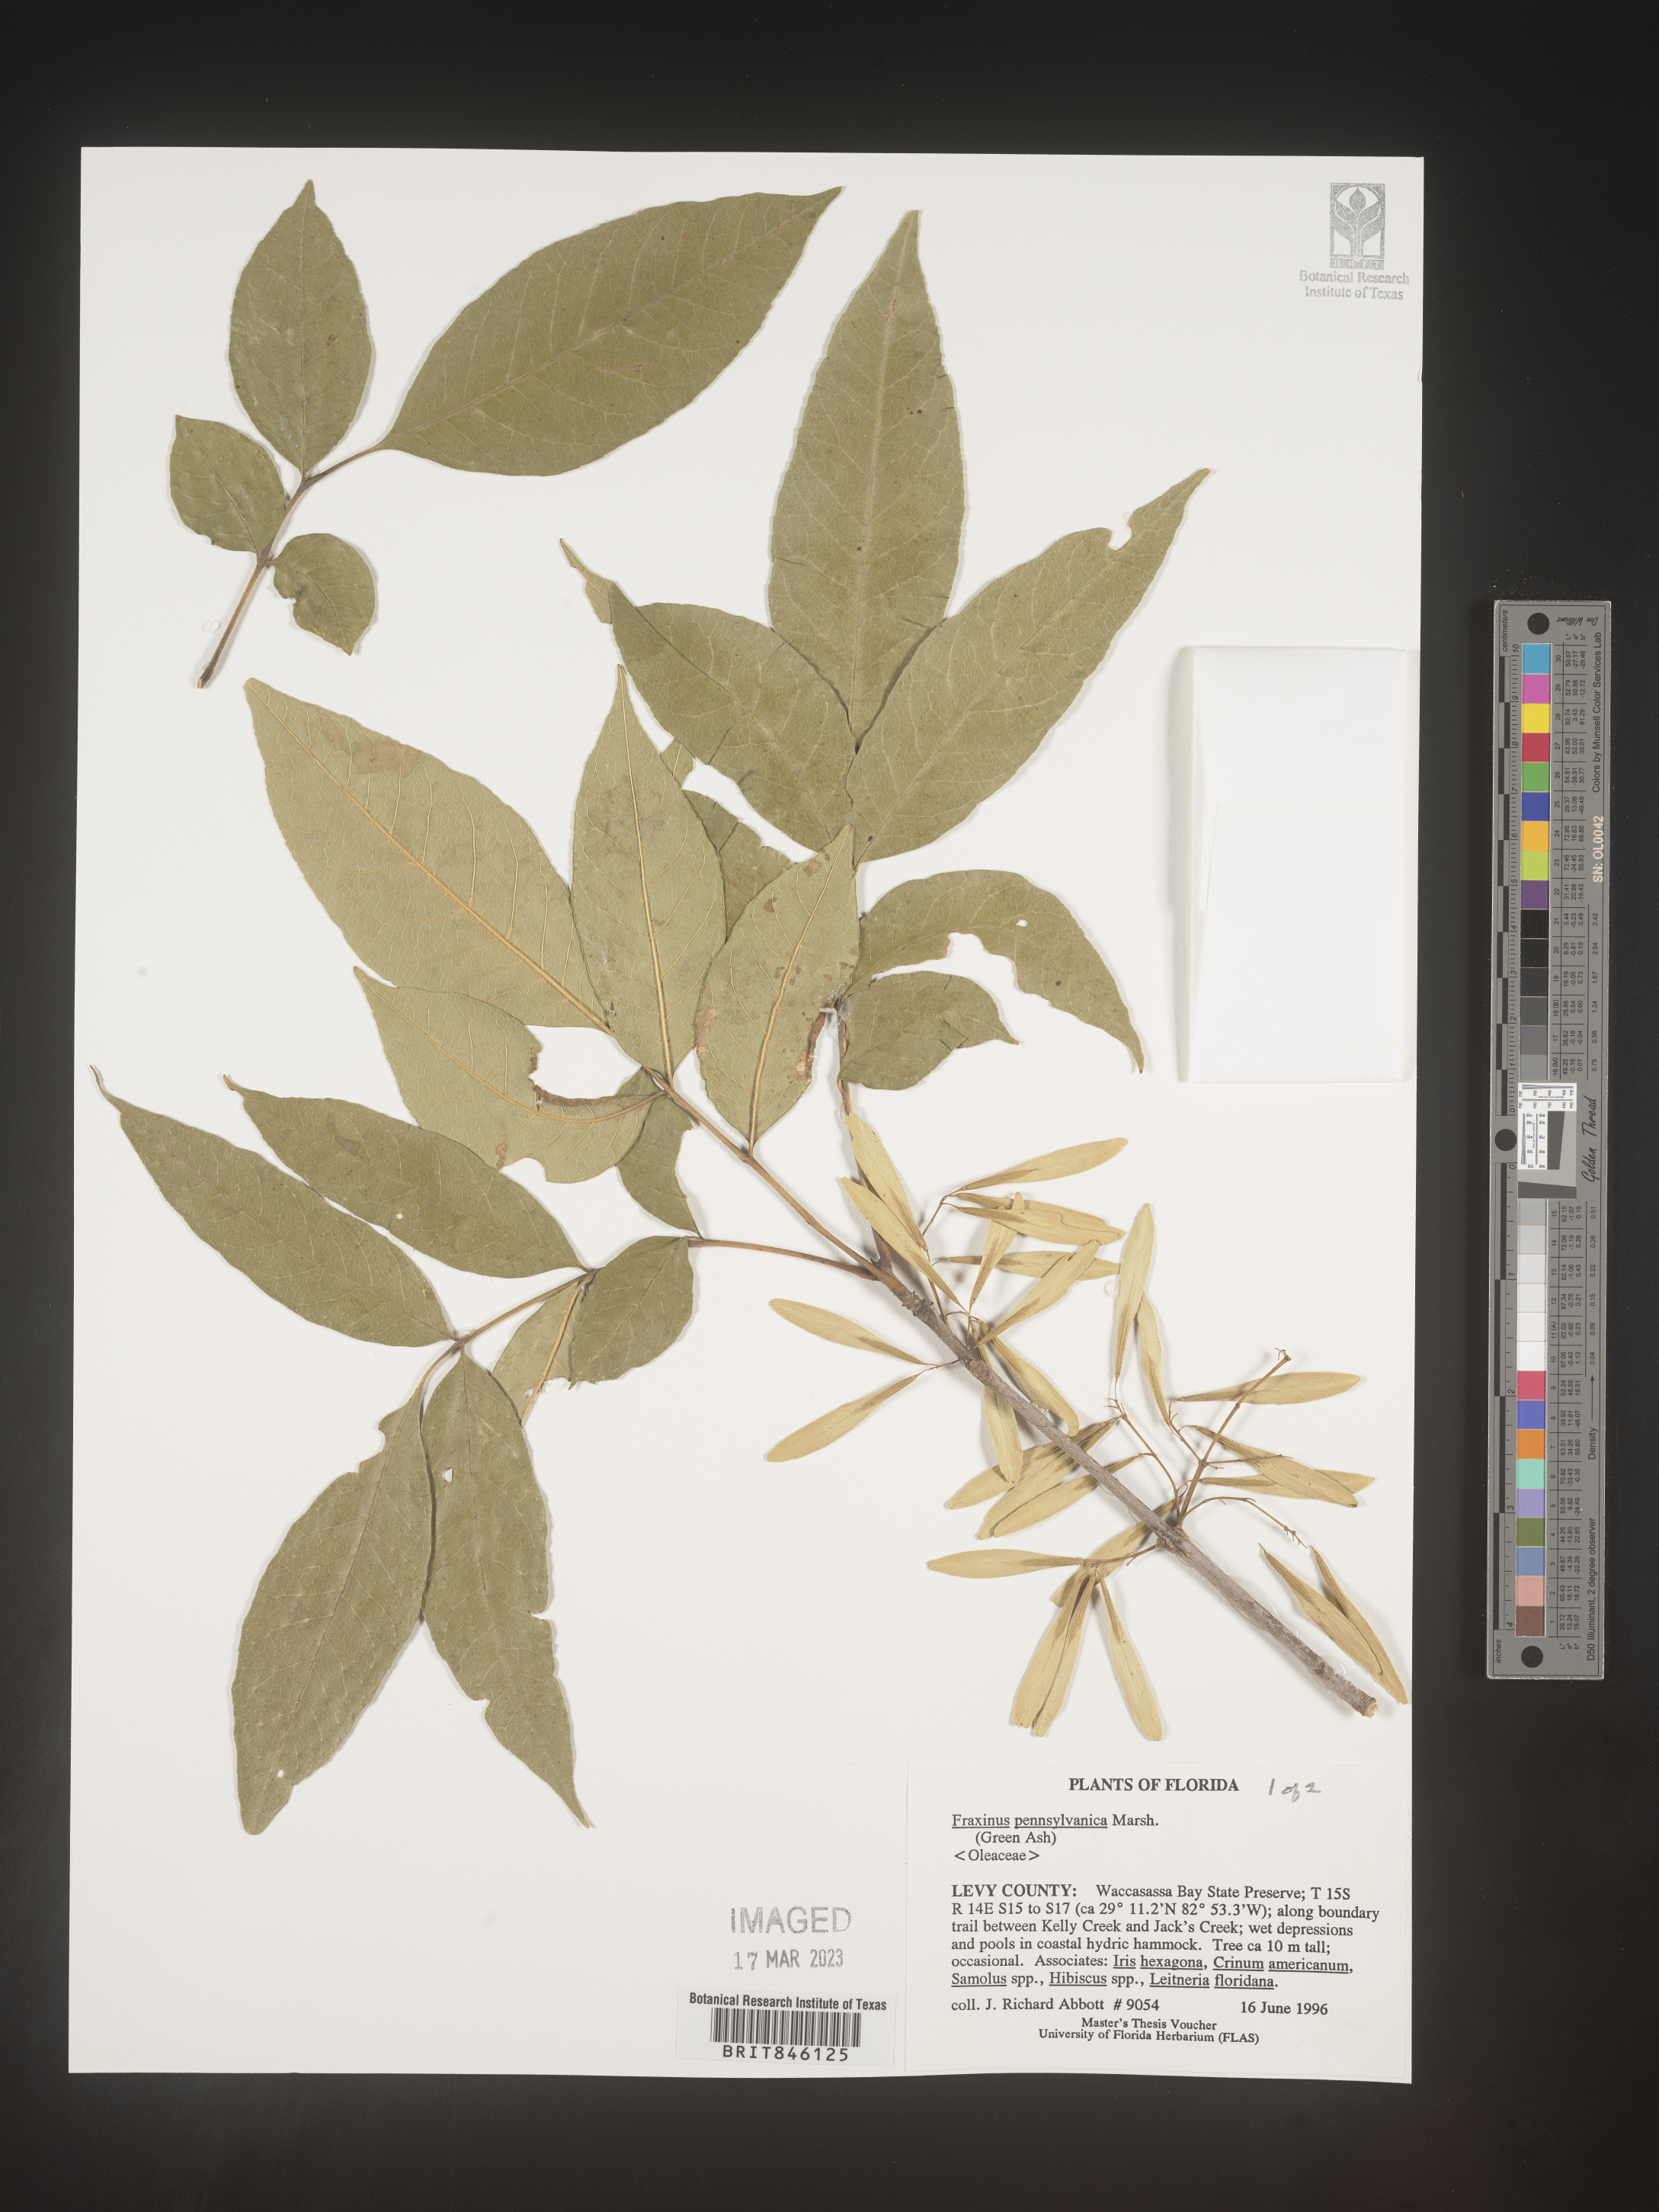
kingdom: Plantae
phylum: Tracheophyta
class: Magnoliopsida
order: Lamiales
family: Oleaceae
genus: Fraxinus
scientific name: Fraxinus pennsylvanica
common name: Green ash
